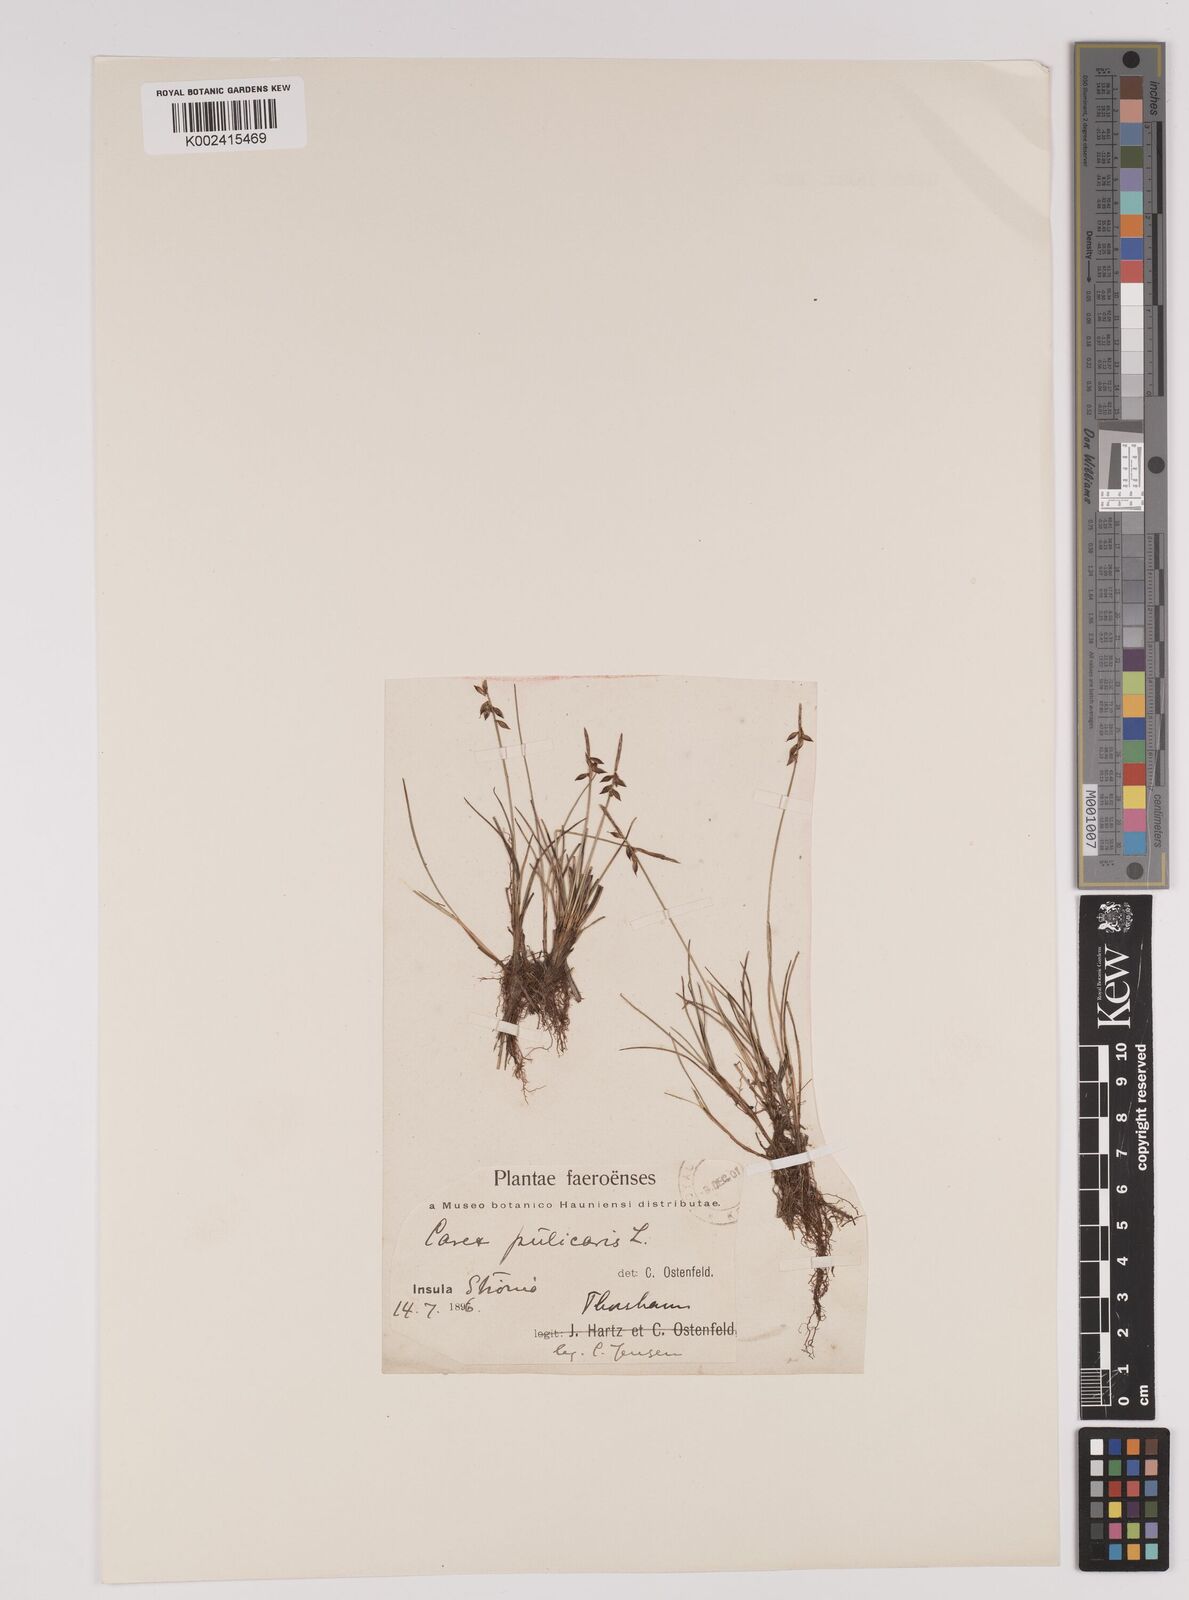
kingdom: Plantae
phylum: Tracheophyta
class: Liliopsida
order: Poales
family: Cyperaceae
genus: Carex
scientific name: Carex pulicaris
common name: Flea sedge
